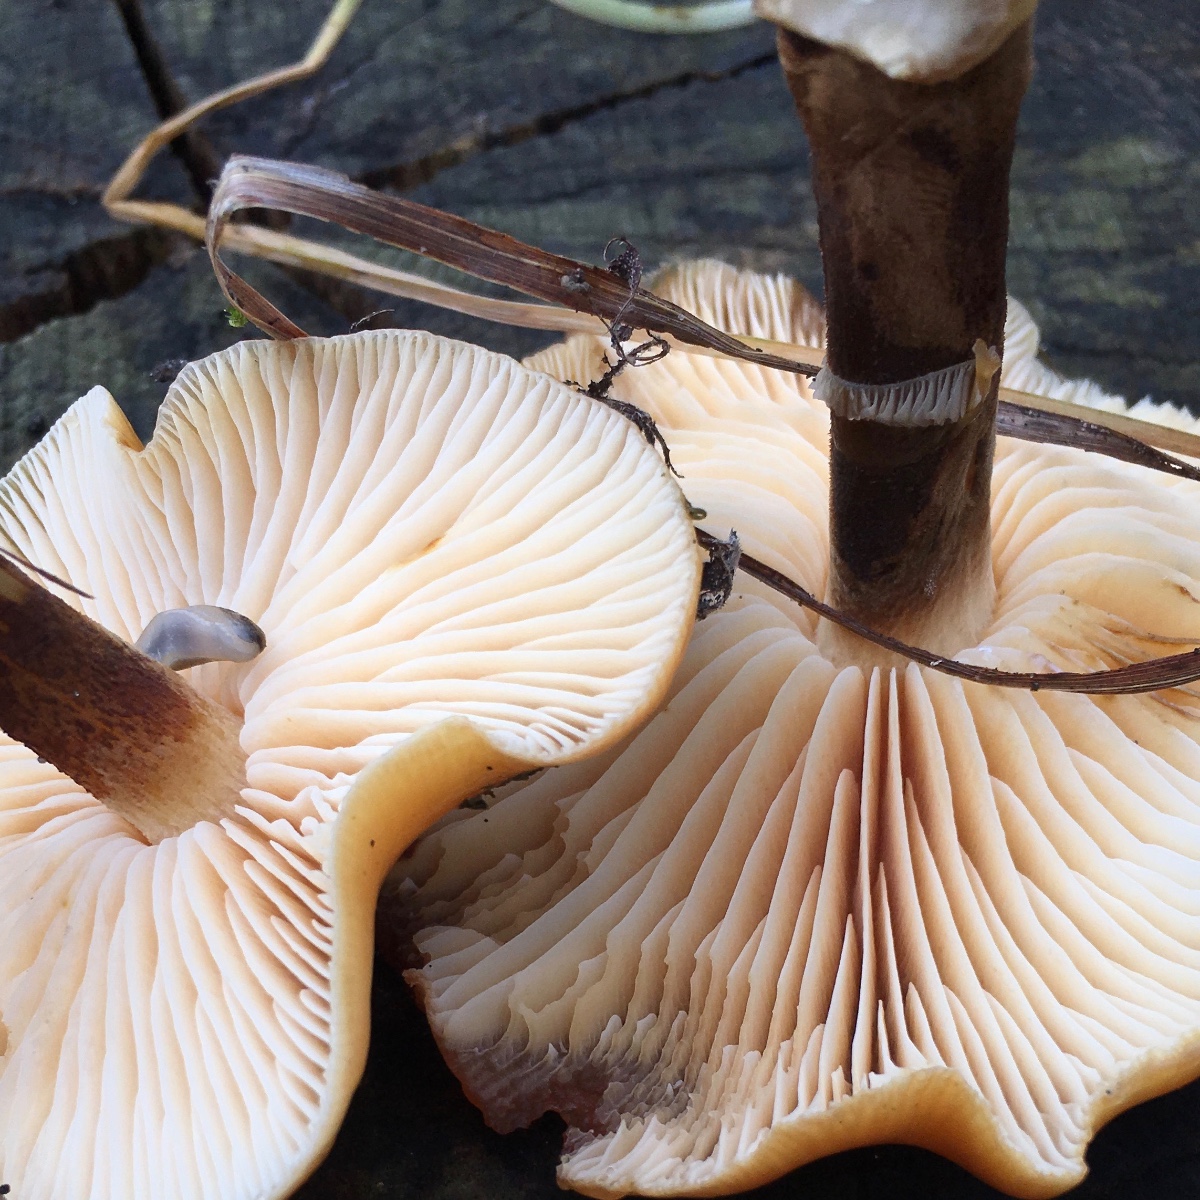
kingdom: Fungi
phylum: Basidiomycota
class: Agaricomycetes
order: Agaricales
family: Physalacriaceae
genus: Flammulina
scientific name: Flammulina velutipes
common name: gul fløjlsfod
